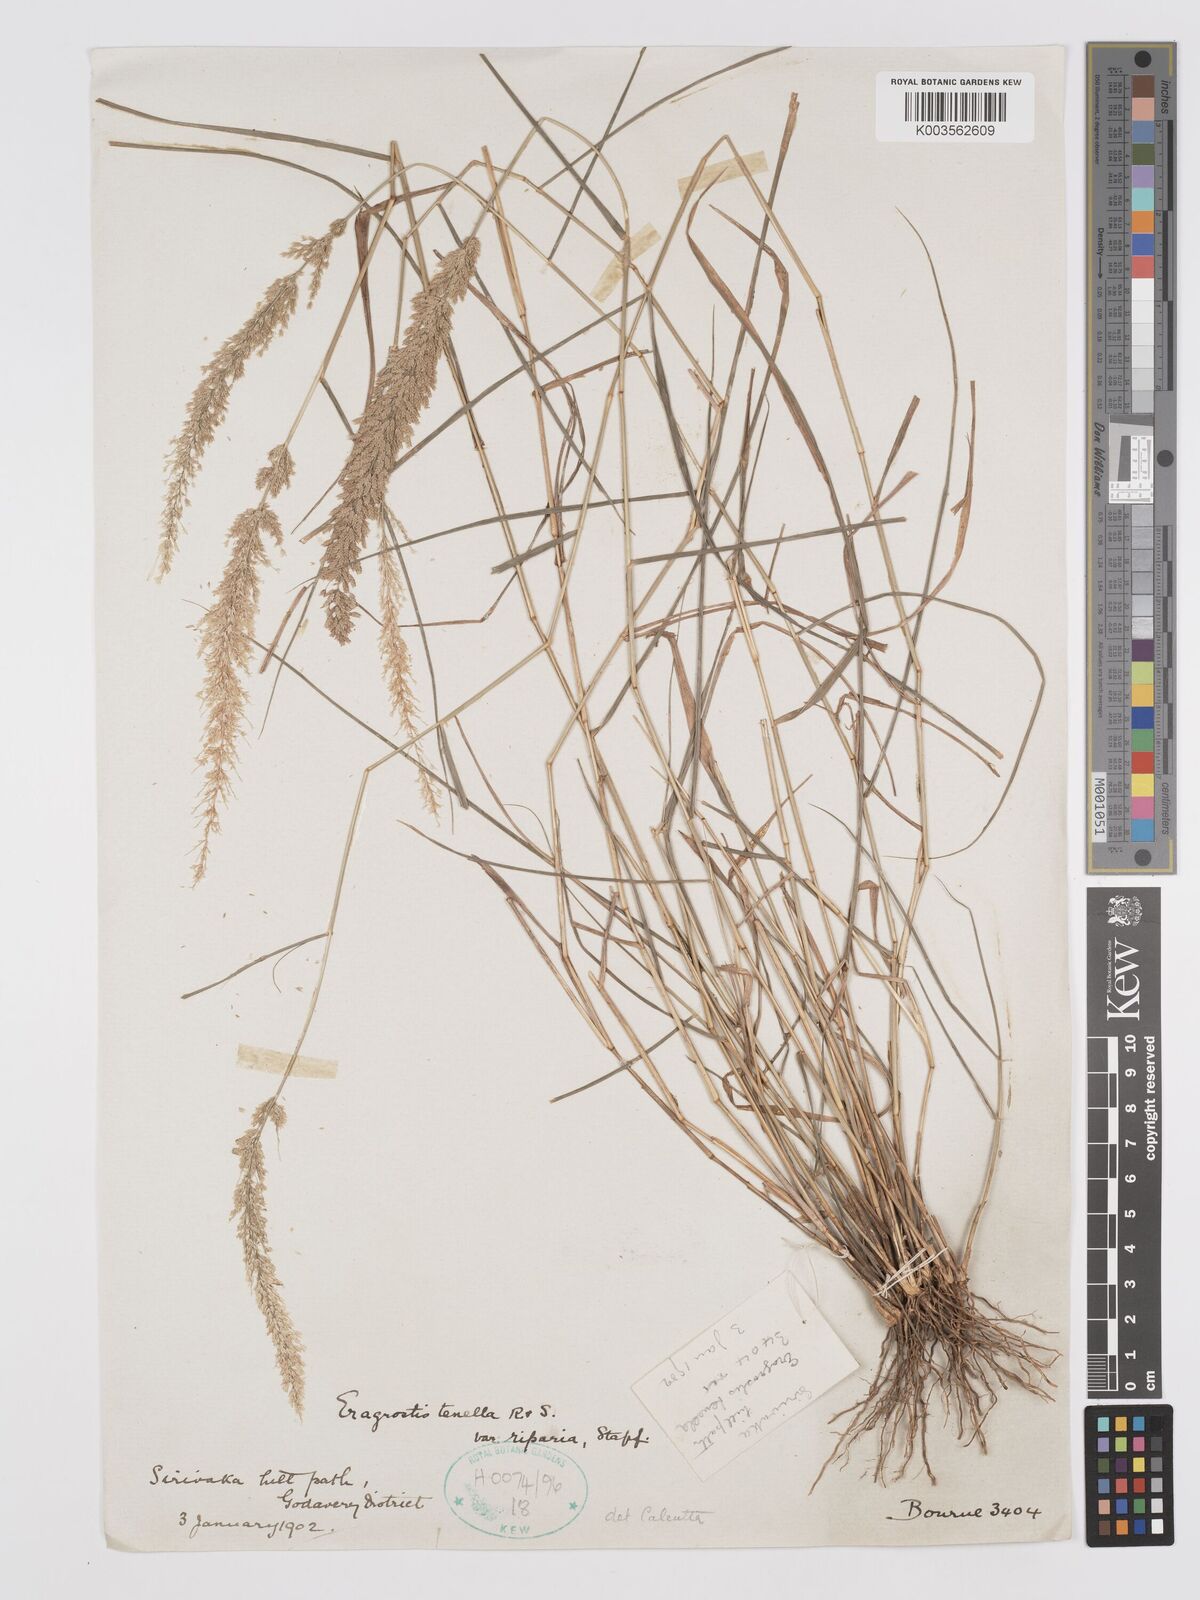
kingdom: Plantae
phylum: Tracheophyta
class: Liliopsida
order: Poales
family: Poaceae
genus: Eragrostis
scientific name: Eragrostis tenella
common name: Japanese lovegrass
